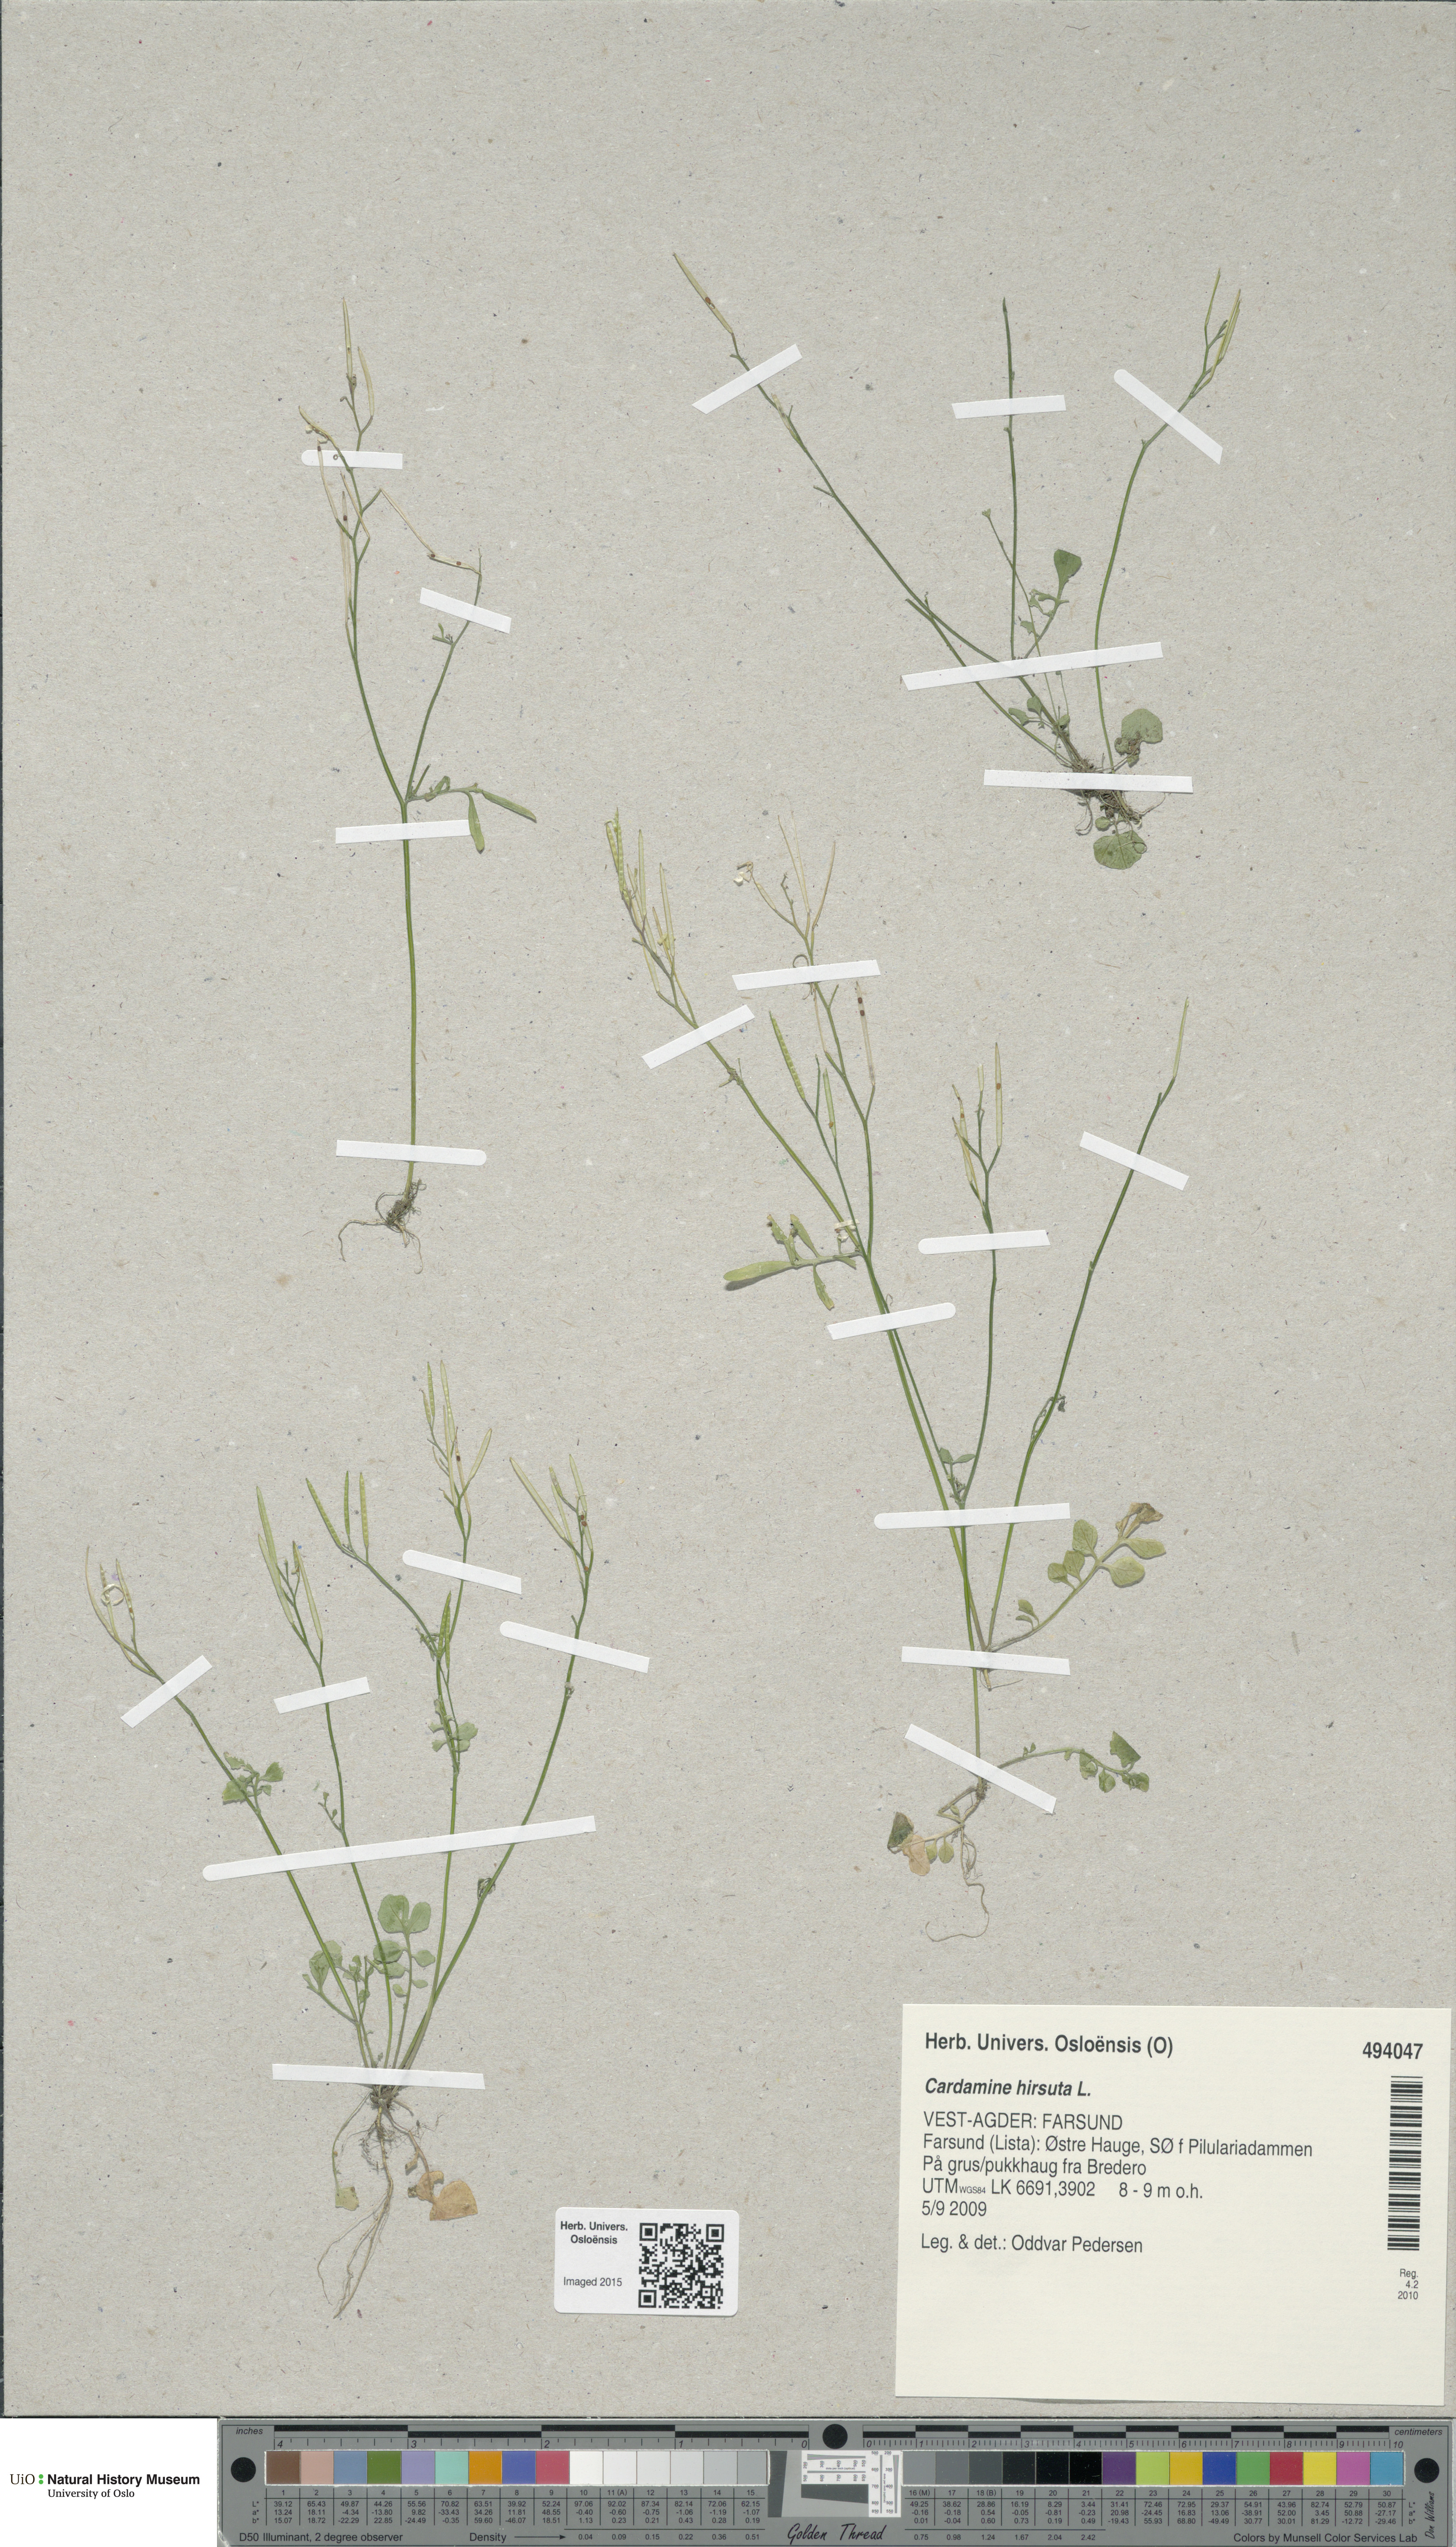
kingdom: Plantae
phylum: Tracheophyta
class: Magnoliopsida
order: Brassicales
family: Brassicaceae
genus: Cardamine
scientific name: Cardamine hirsuta
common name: Hairy bittercress
